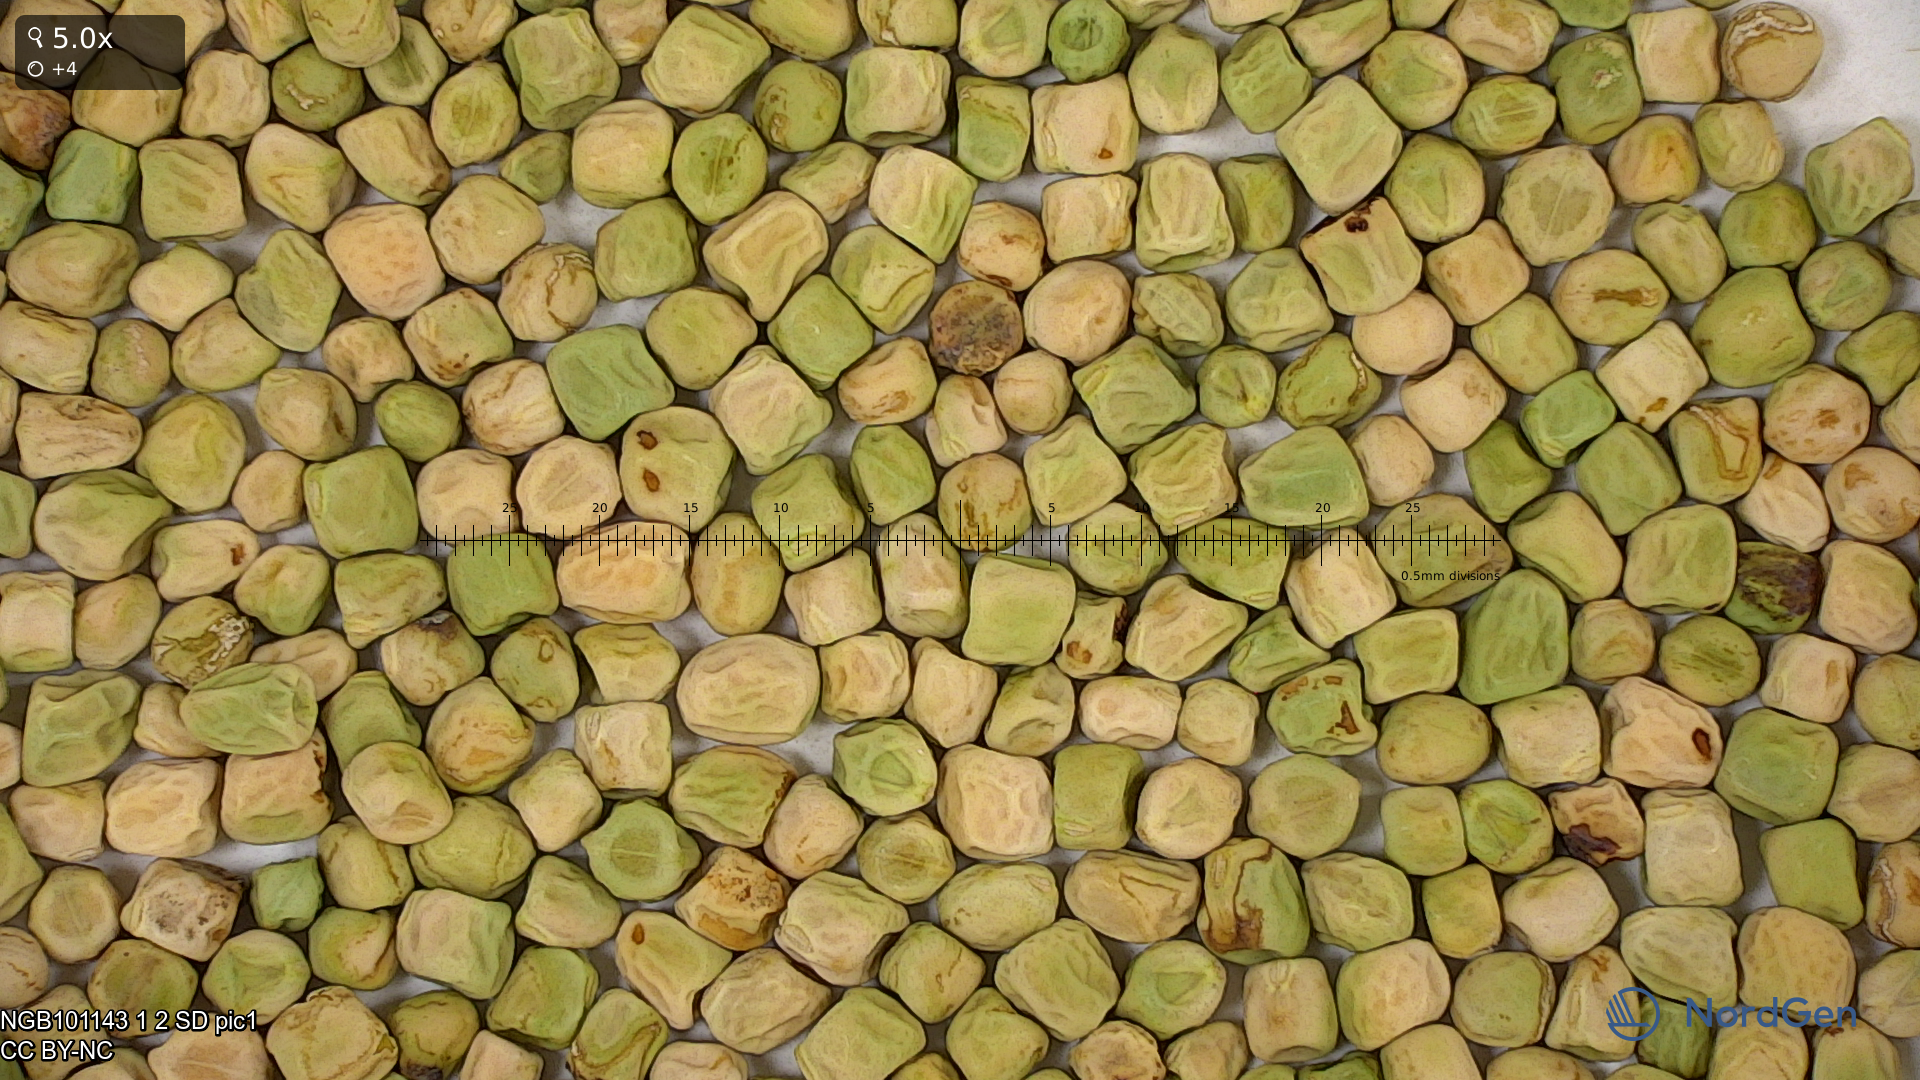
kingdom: Plantae
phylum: Tracheophyta
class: Magnoliopsida
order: Fabales
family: Fabaceae
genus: Lathyrus
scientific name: Lathyrus oleraceus
